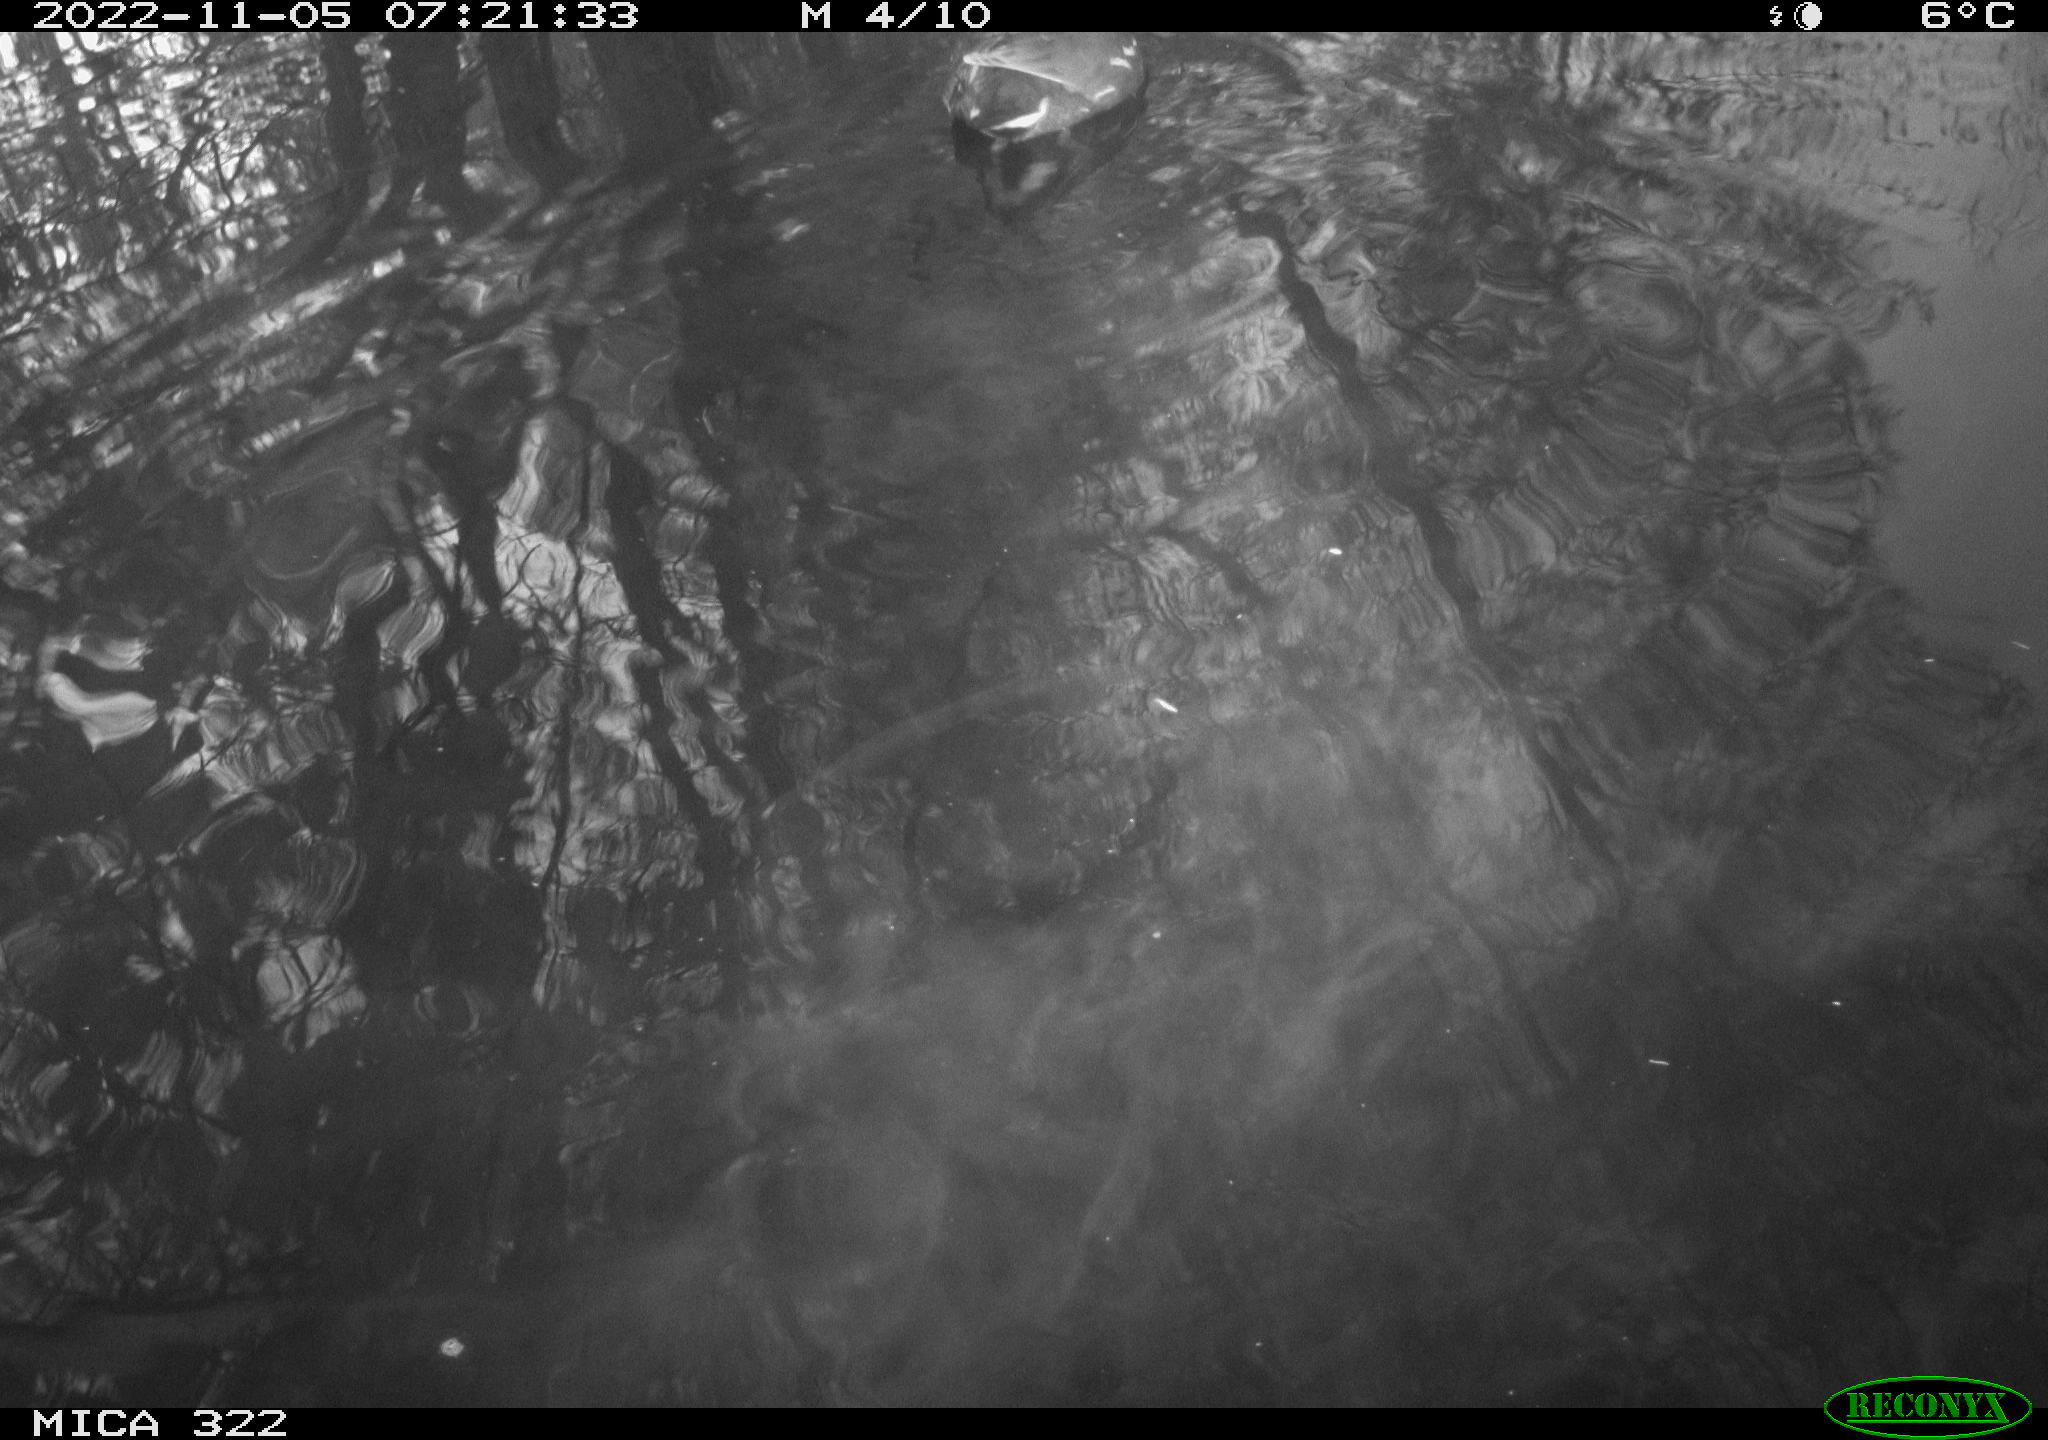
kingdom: Animalia
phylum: Chordata
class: Aves
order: Gruiformes
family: Rallidae
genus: Gallinula
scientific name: Gallinula chloropus
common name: Common moorhen
